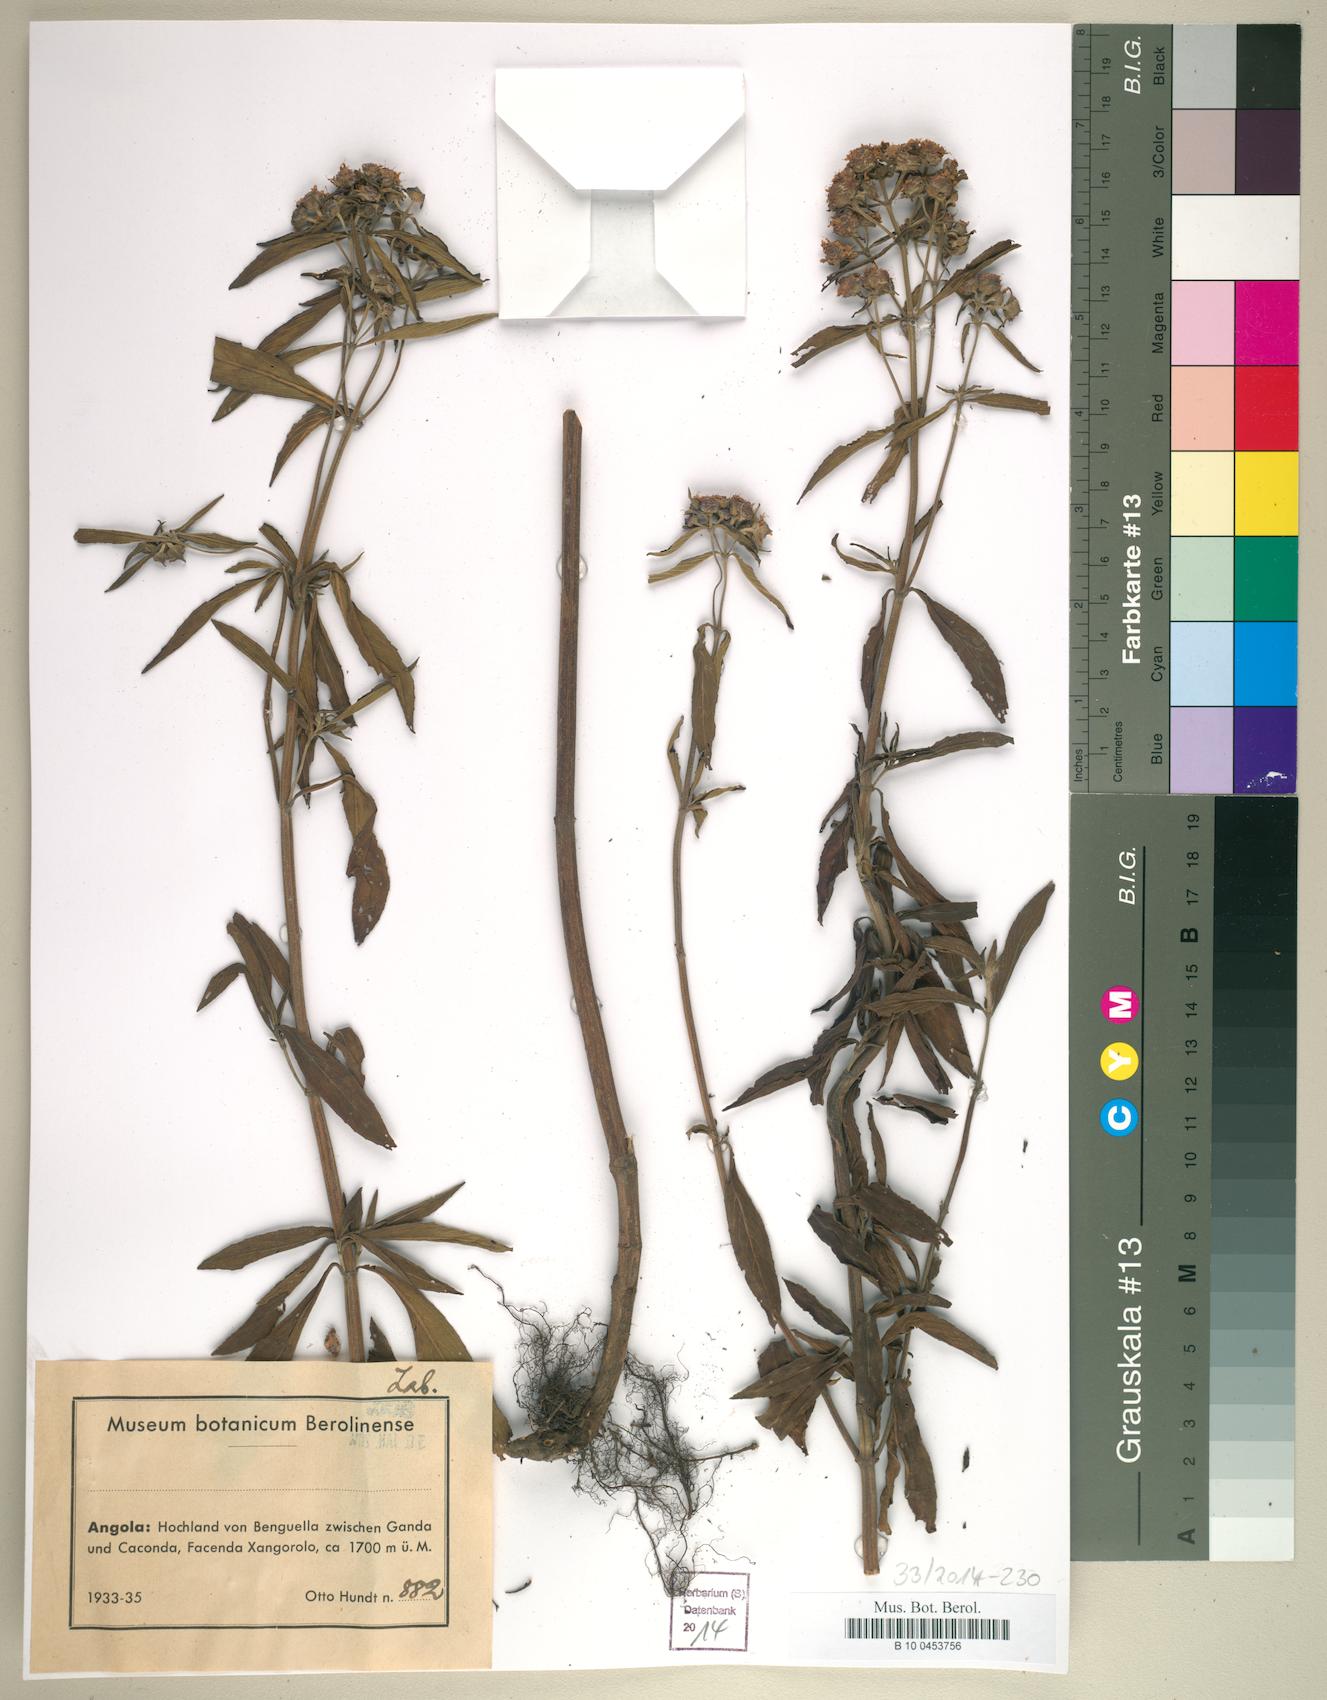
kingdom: Plantae
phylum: Tracheophyta
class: Magnoliopsida
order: Lamiales
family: Lamiaceae
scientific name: Lamiaceae
